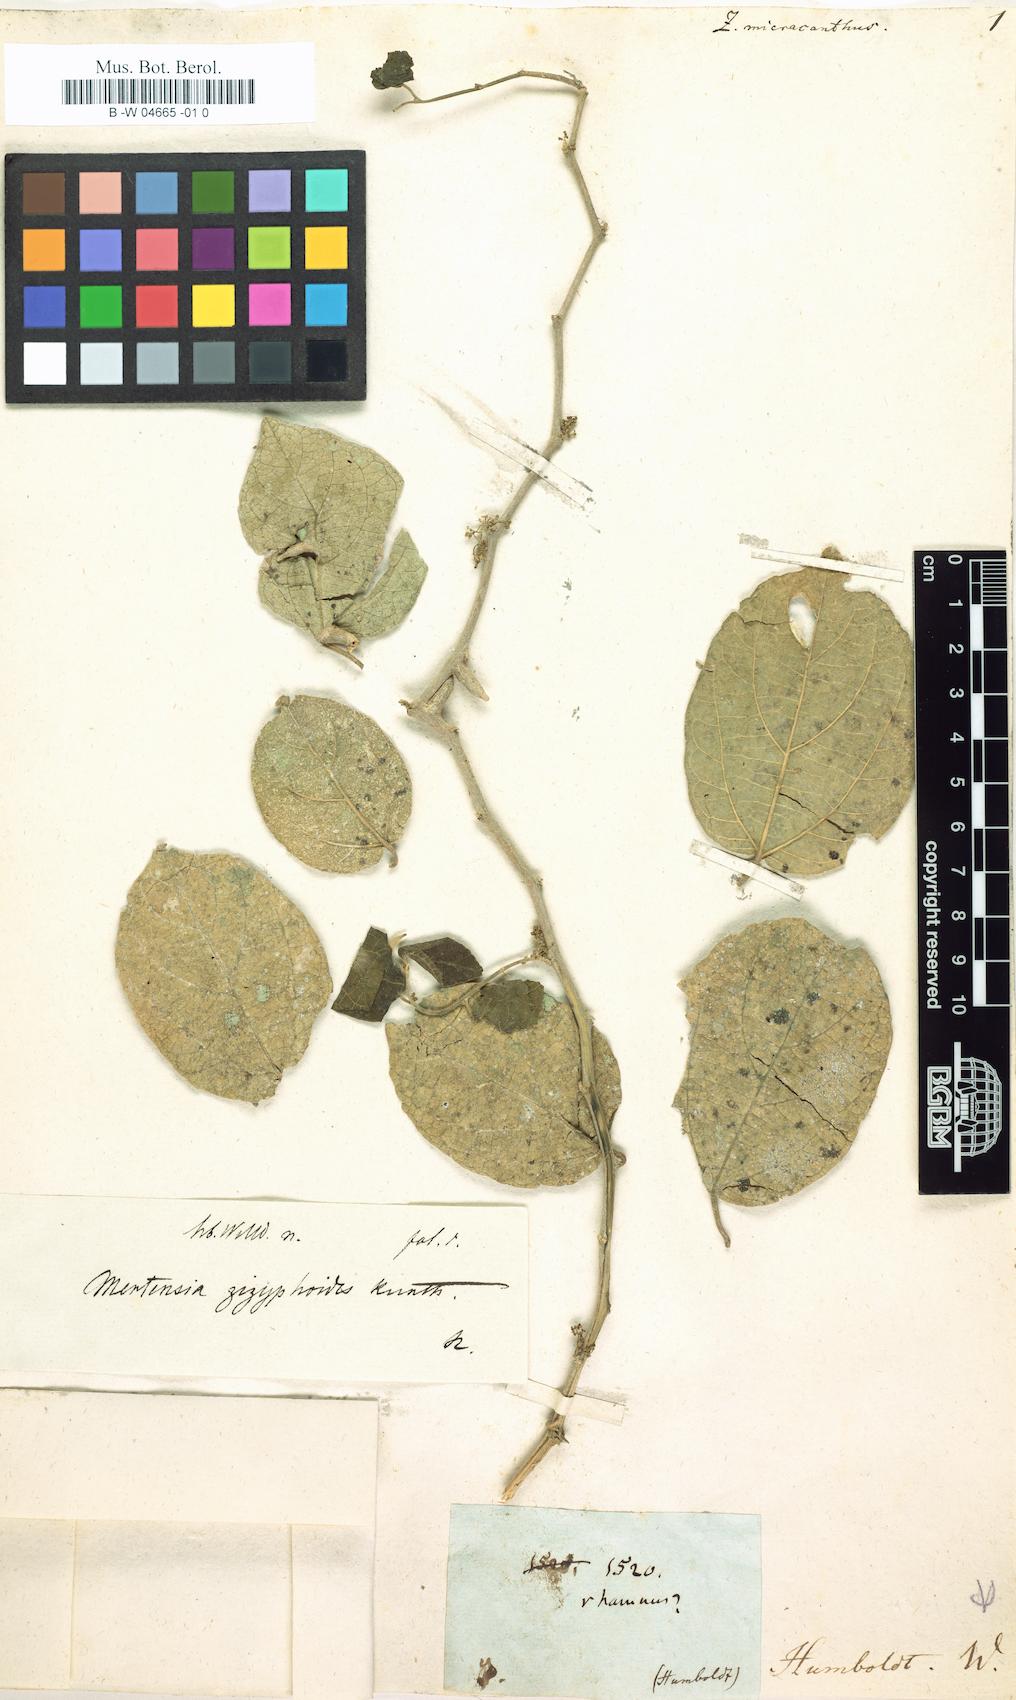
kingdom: Plantae
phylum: Tracheophyta
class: Magnoliopsida
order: Rosales
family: Rhamnaceae
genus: Ziziphus
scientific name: Ziziphus
